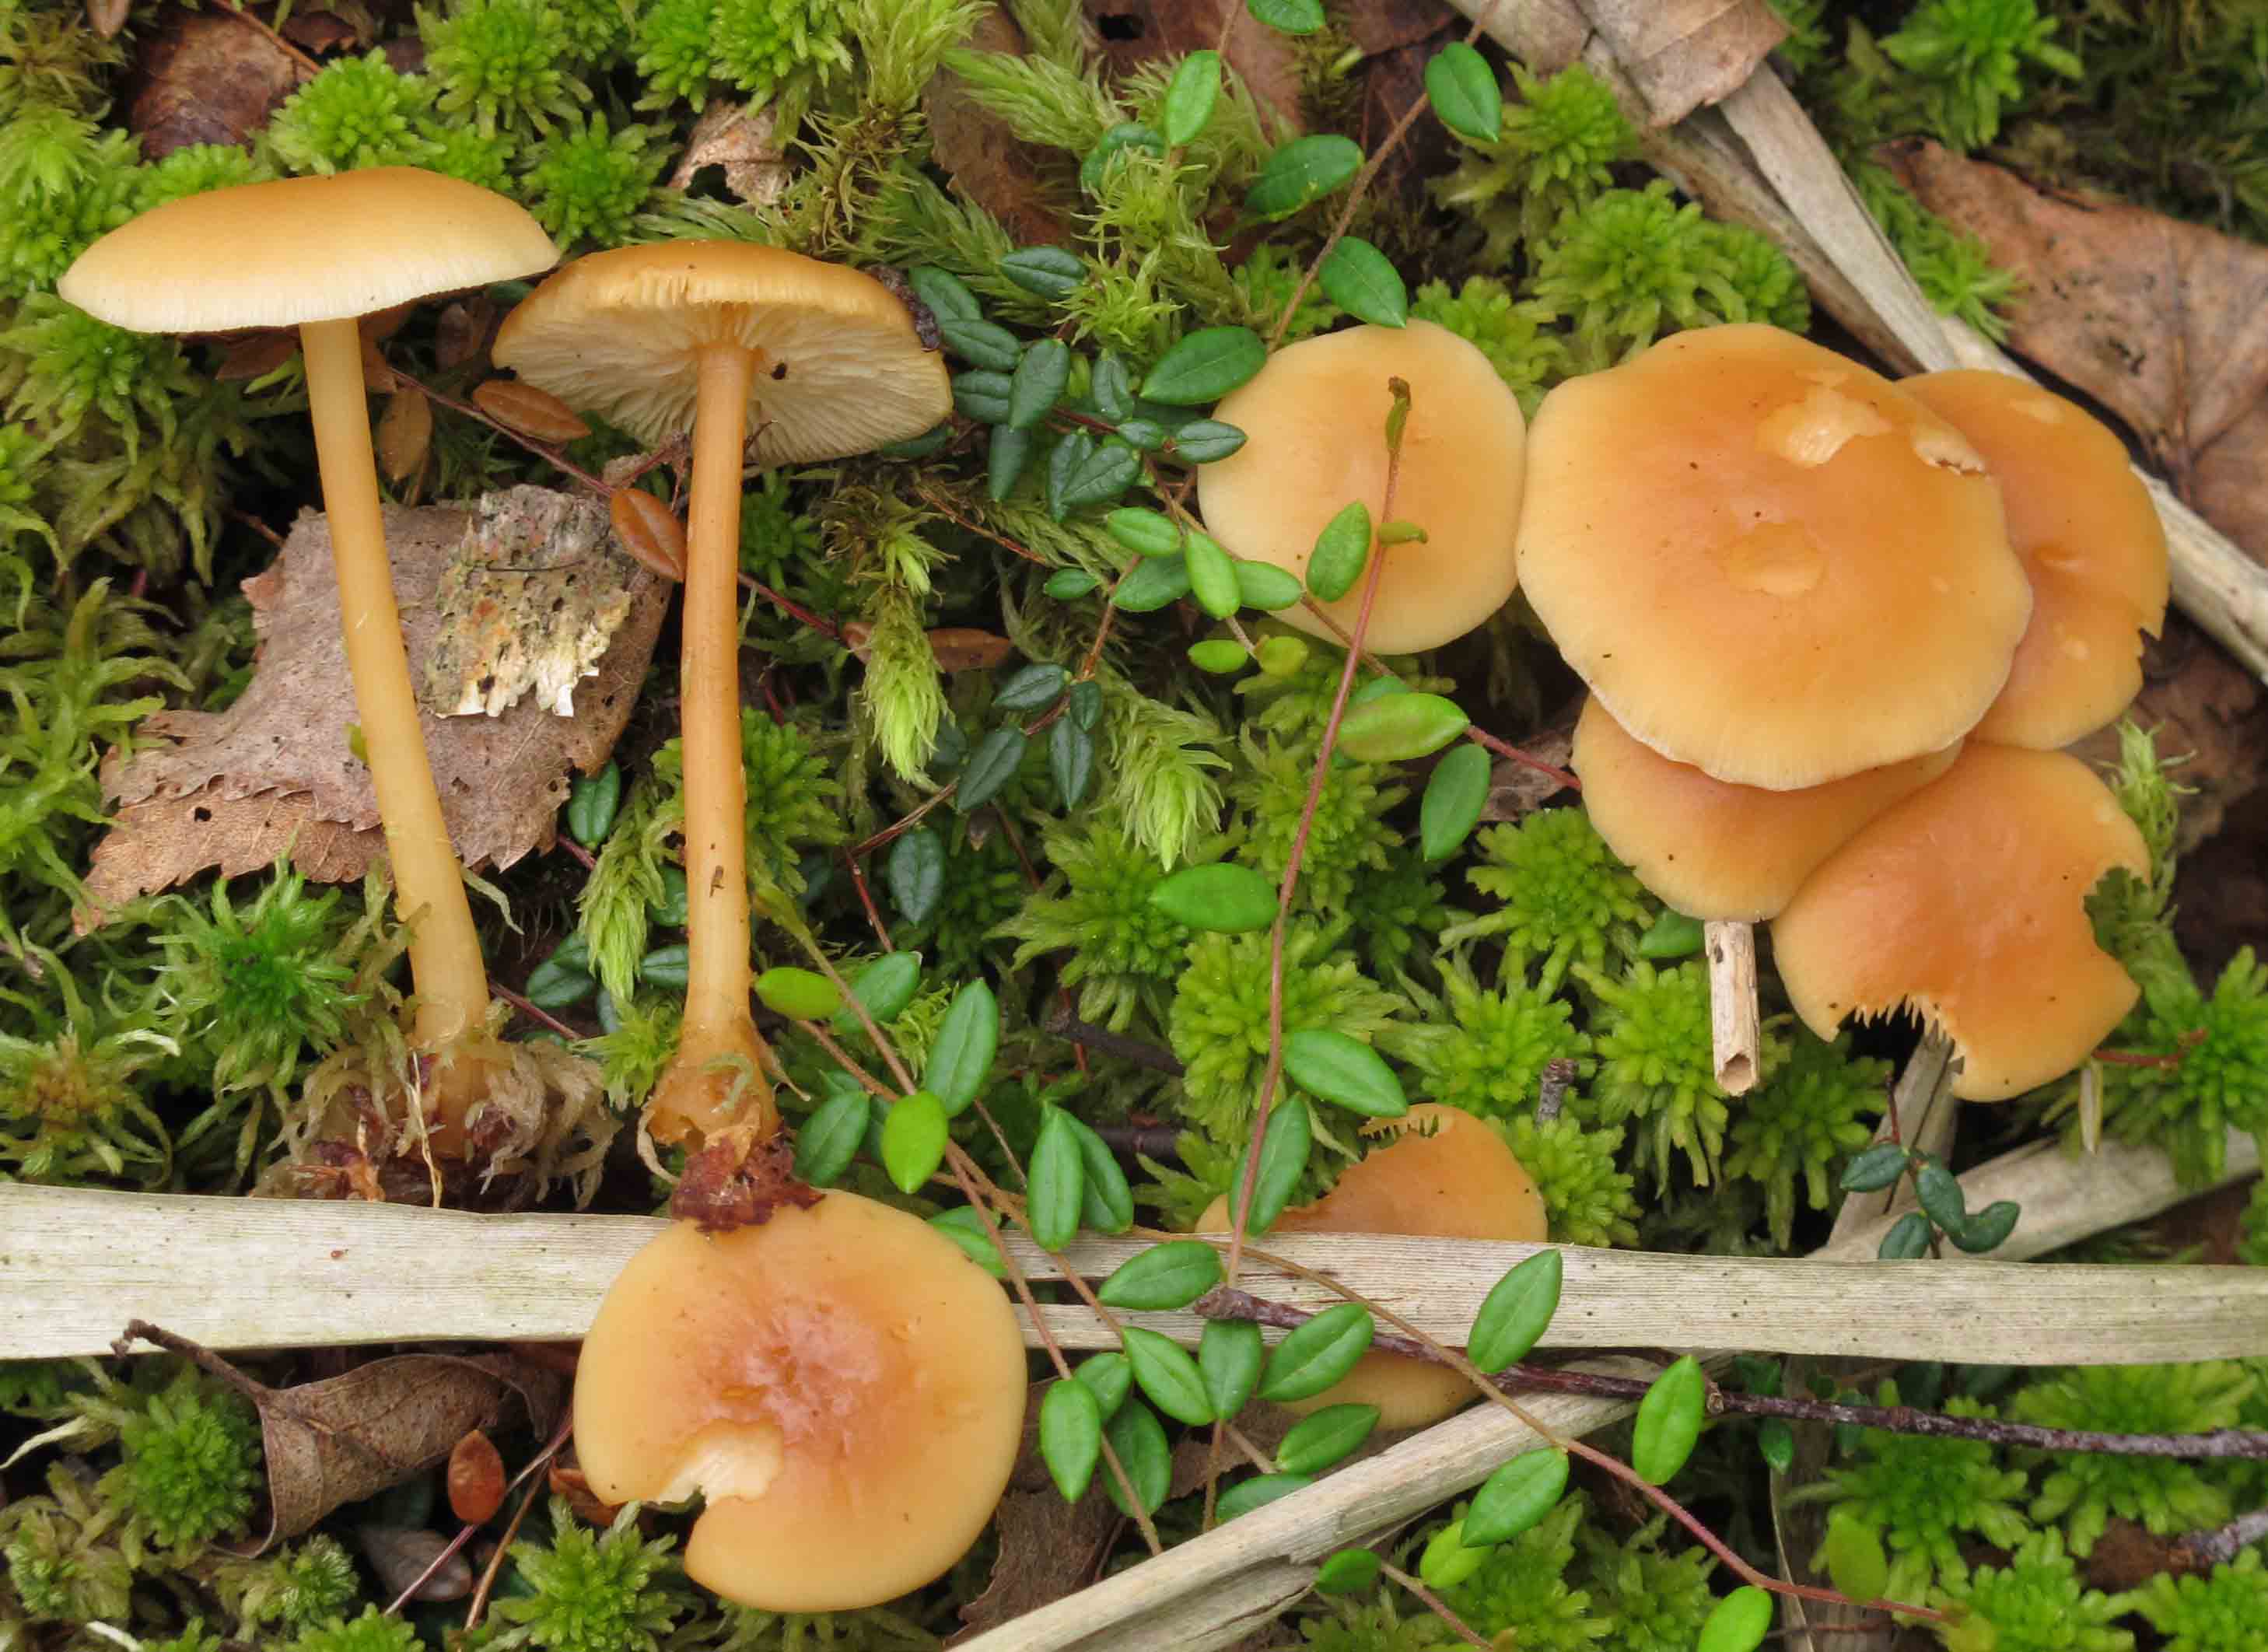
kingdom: Fungi
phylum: Basidiomycota
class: Agaricomycetes
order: Agaricales
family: Omphalotaceae
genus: Gymnopus
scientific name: Gymnopus aquosus
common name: bleg fladhat
